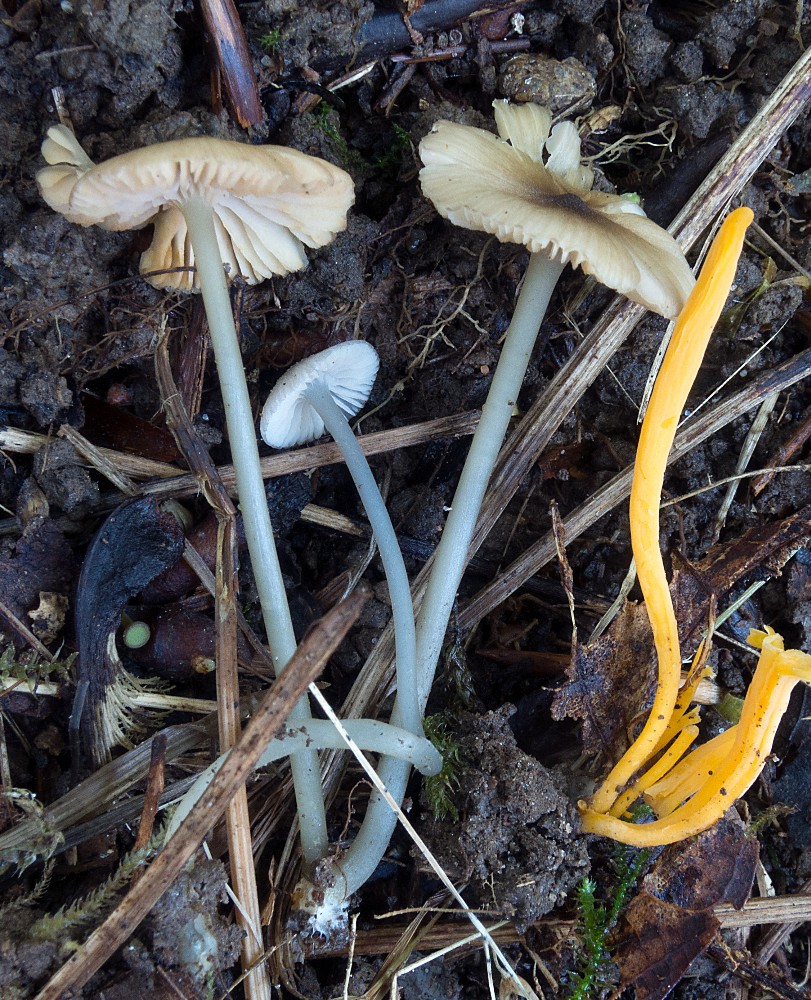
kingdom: Fungi
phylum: Basidiomycota
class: Agaricomycetes
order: Agaricales
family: Entolomataceae
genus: Entoloma
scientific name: Entoloma exile
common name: rødplettet rødblad
